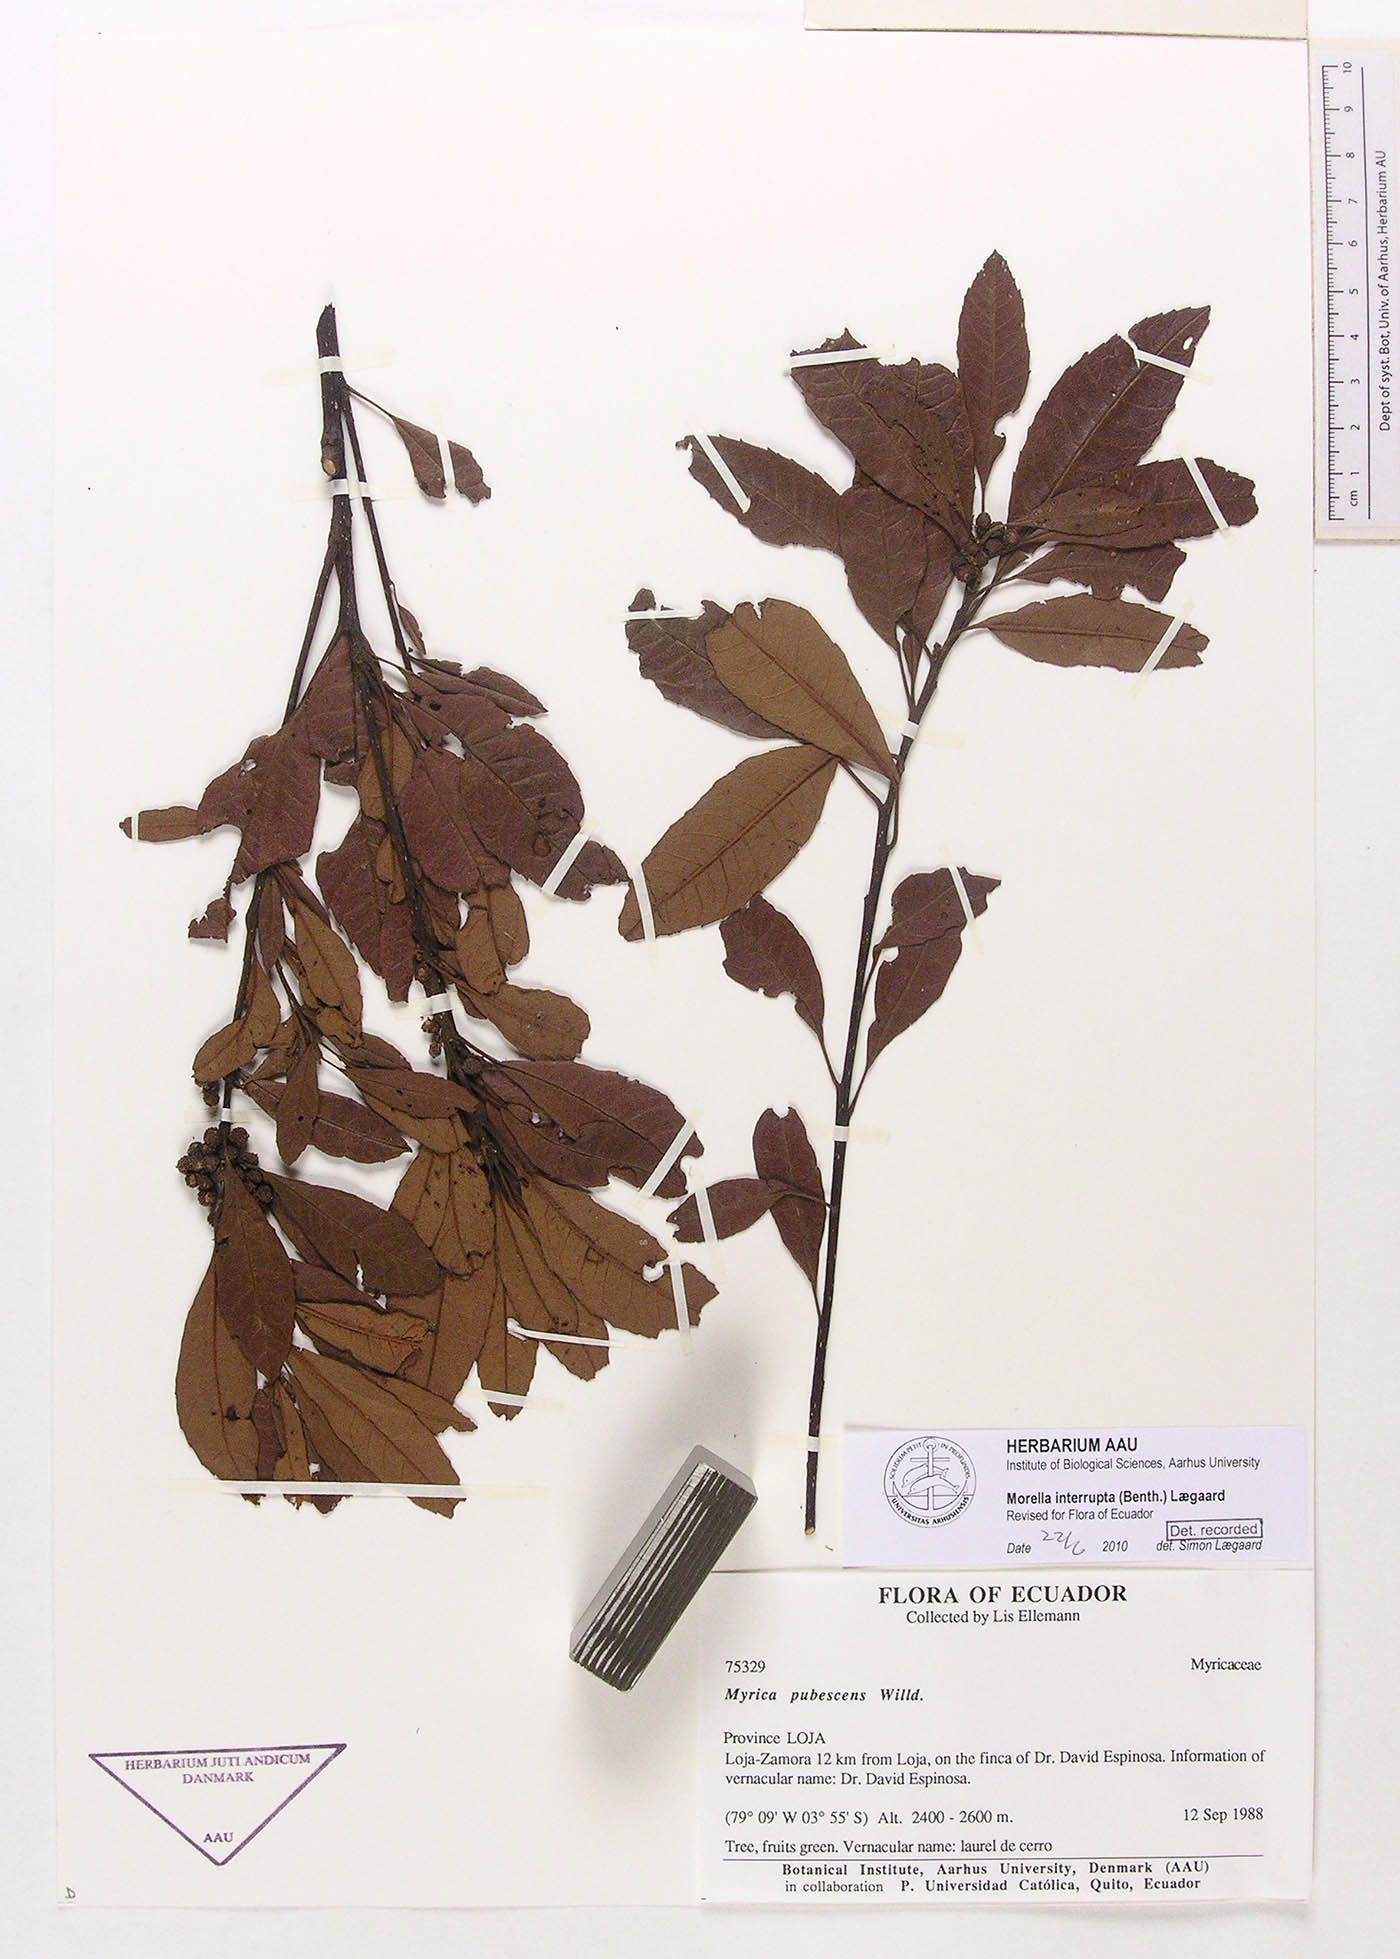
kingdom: Plantae
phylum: Tracheophyta
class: Magnoliopsida
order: Fagales
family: Myricaceae
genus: Morella
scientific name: Morella interrupta
